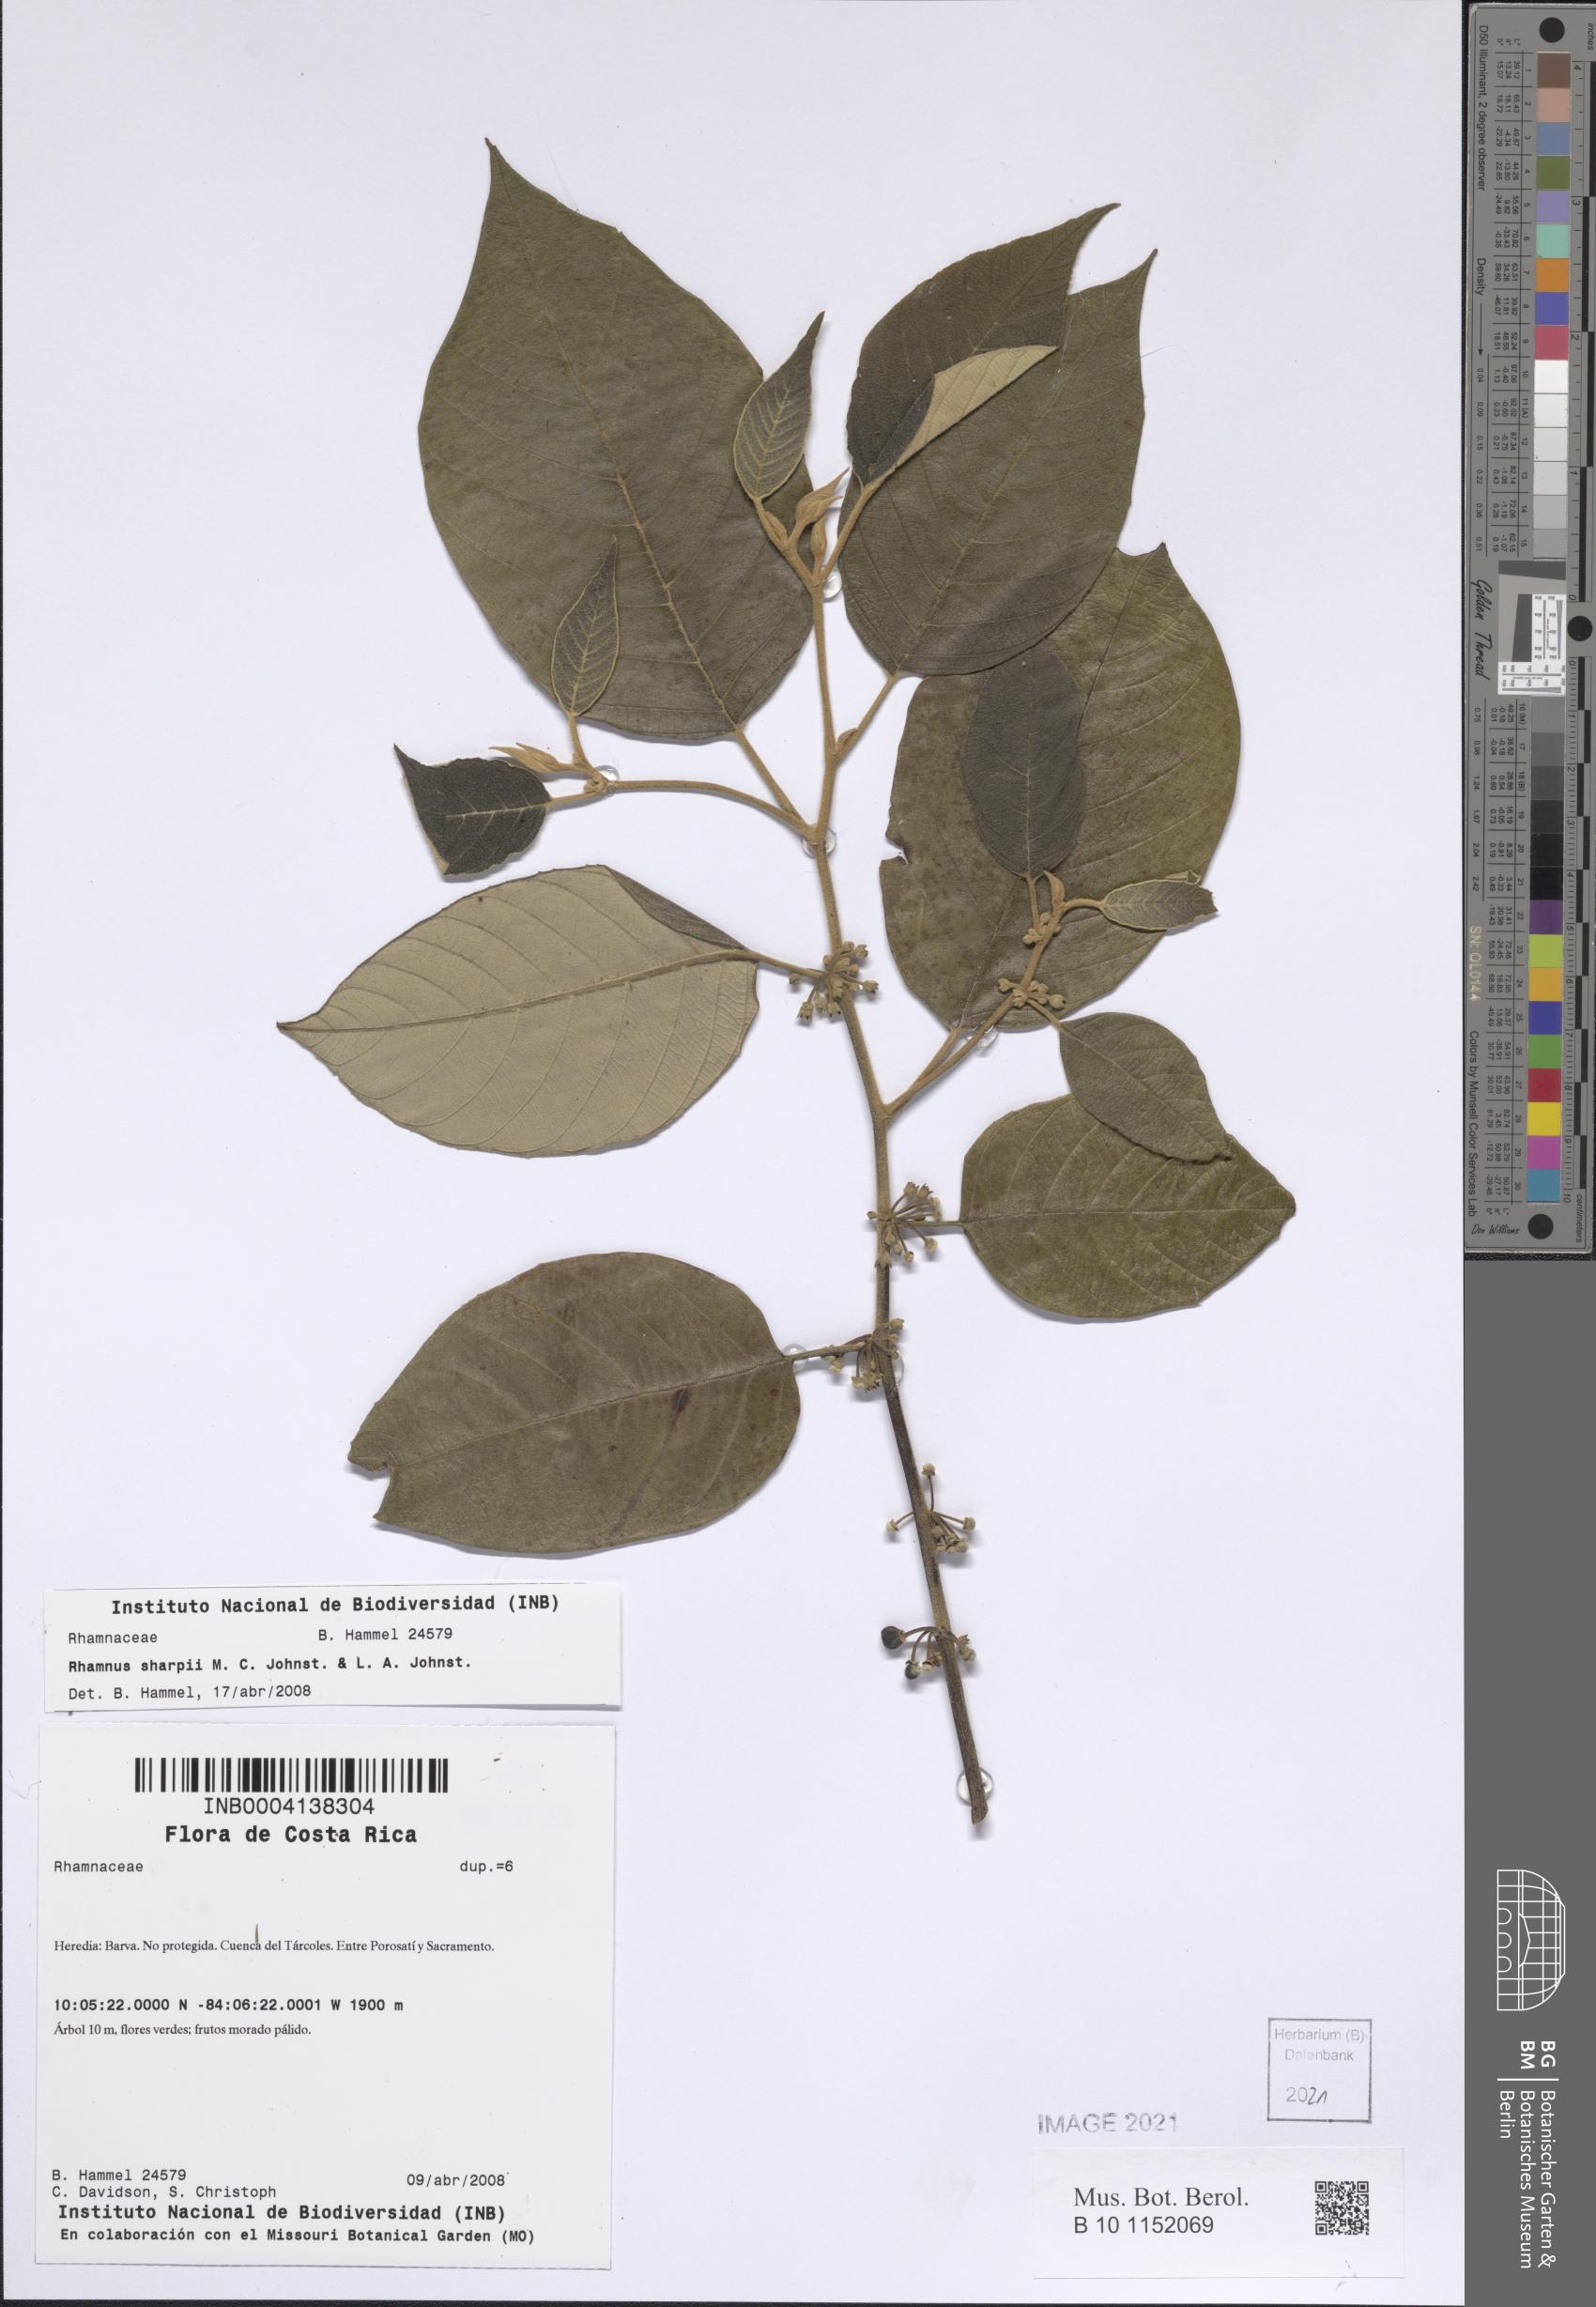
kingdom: Plantae
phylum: Tracheophyta
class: Magnoliopsida
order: Rosales
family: Rhamnaceae
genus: Frangula
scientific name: Frangula discolor
